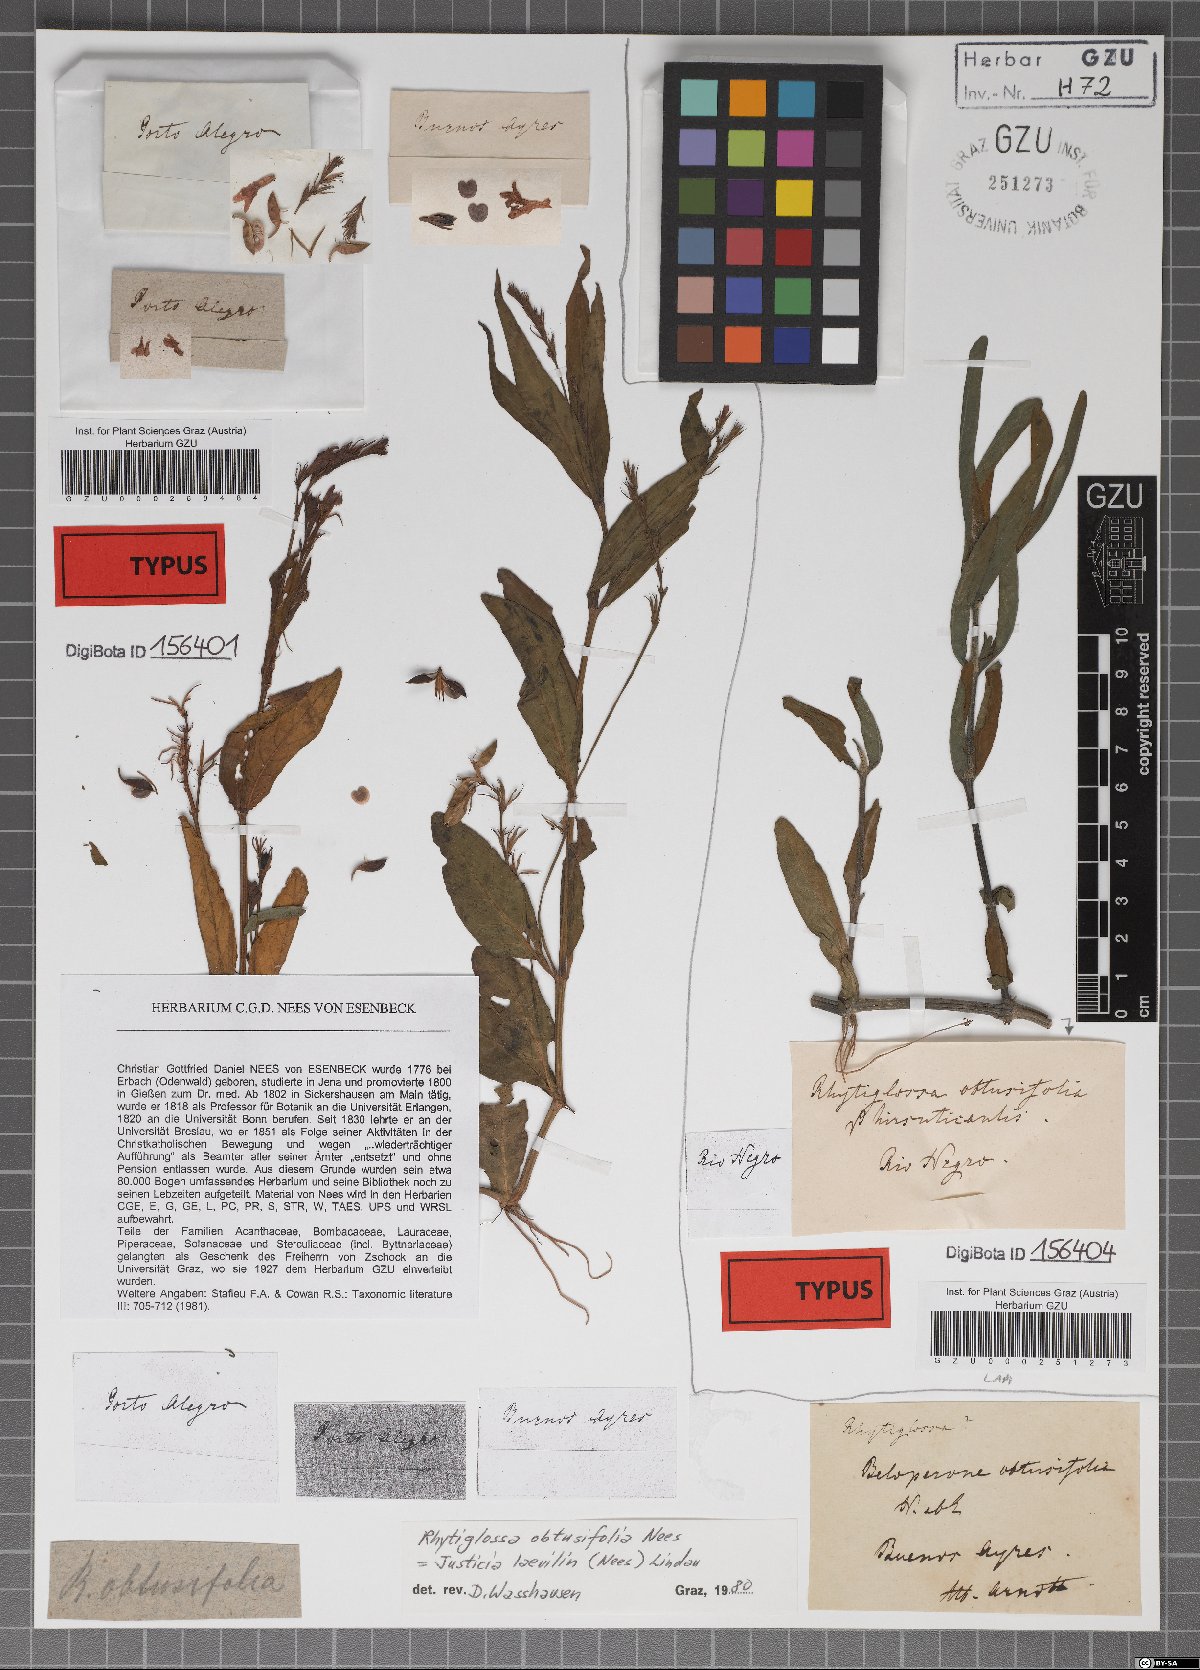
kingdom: Plantae
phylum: Tracheophyta
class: Magnoliopsida
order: Lamiales
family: Acanthaceae
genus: Dianthera
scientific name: Dianthera laevilinguis
